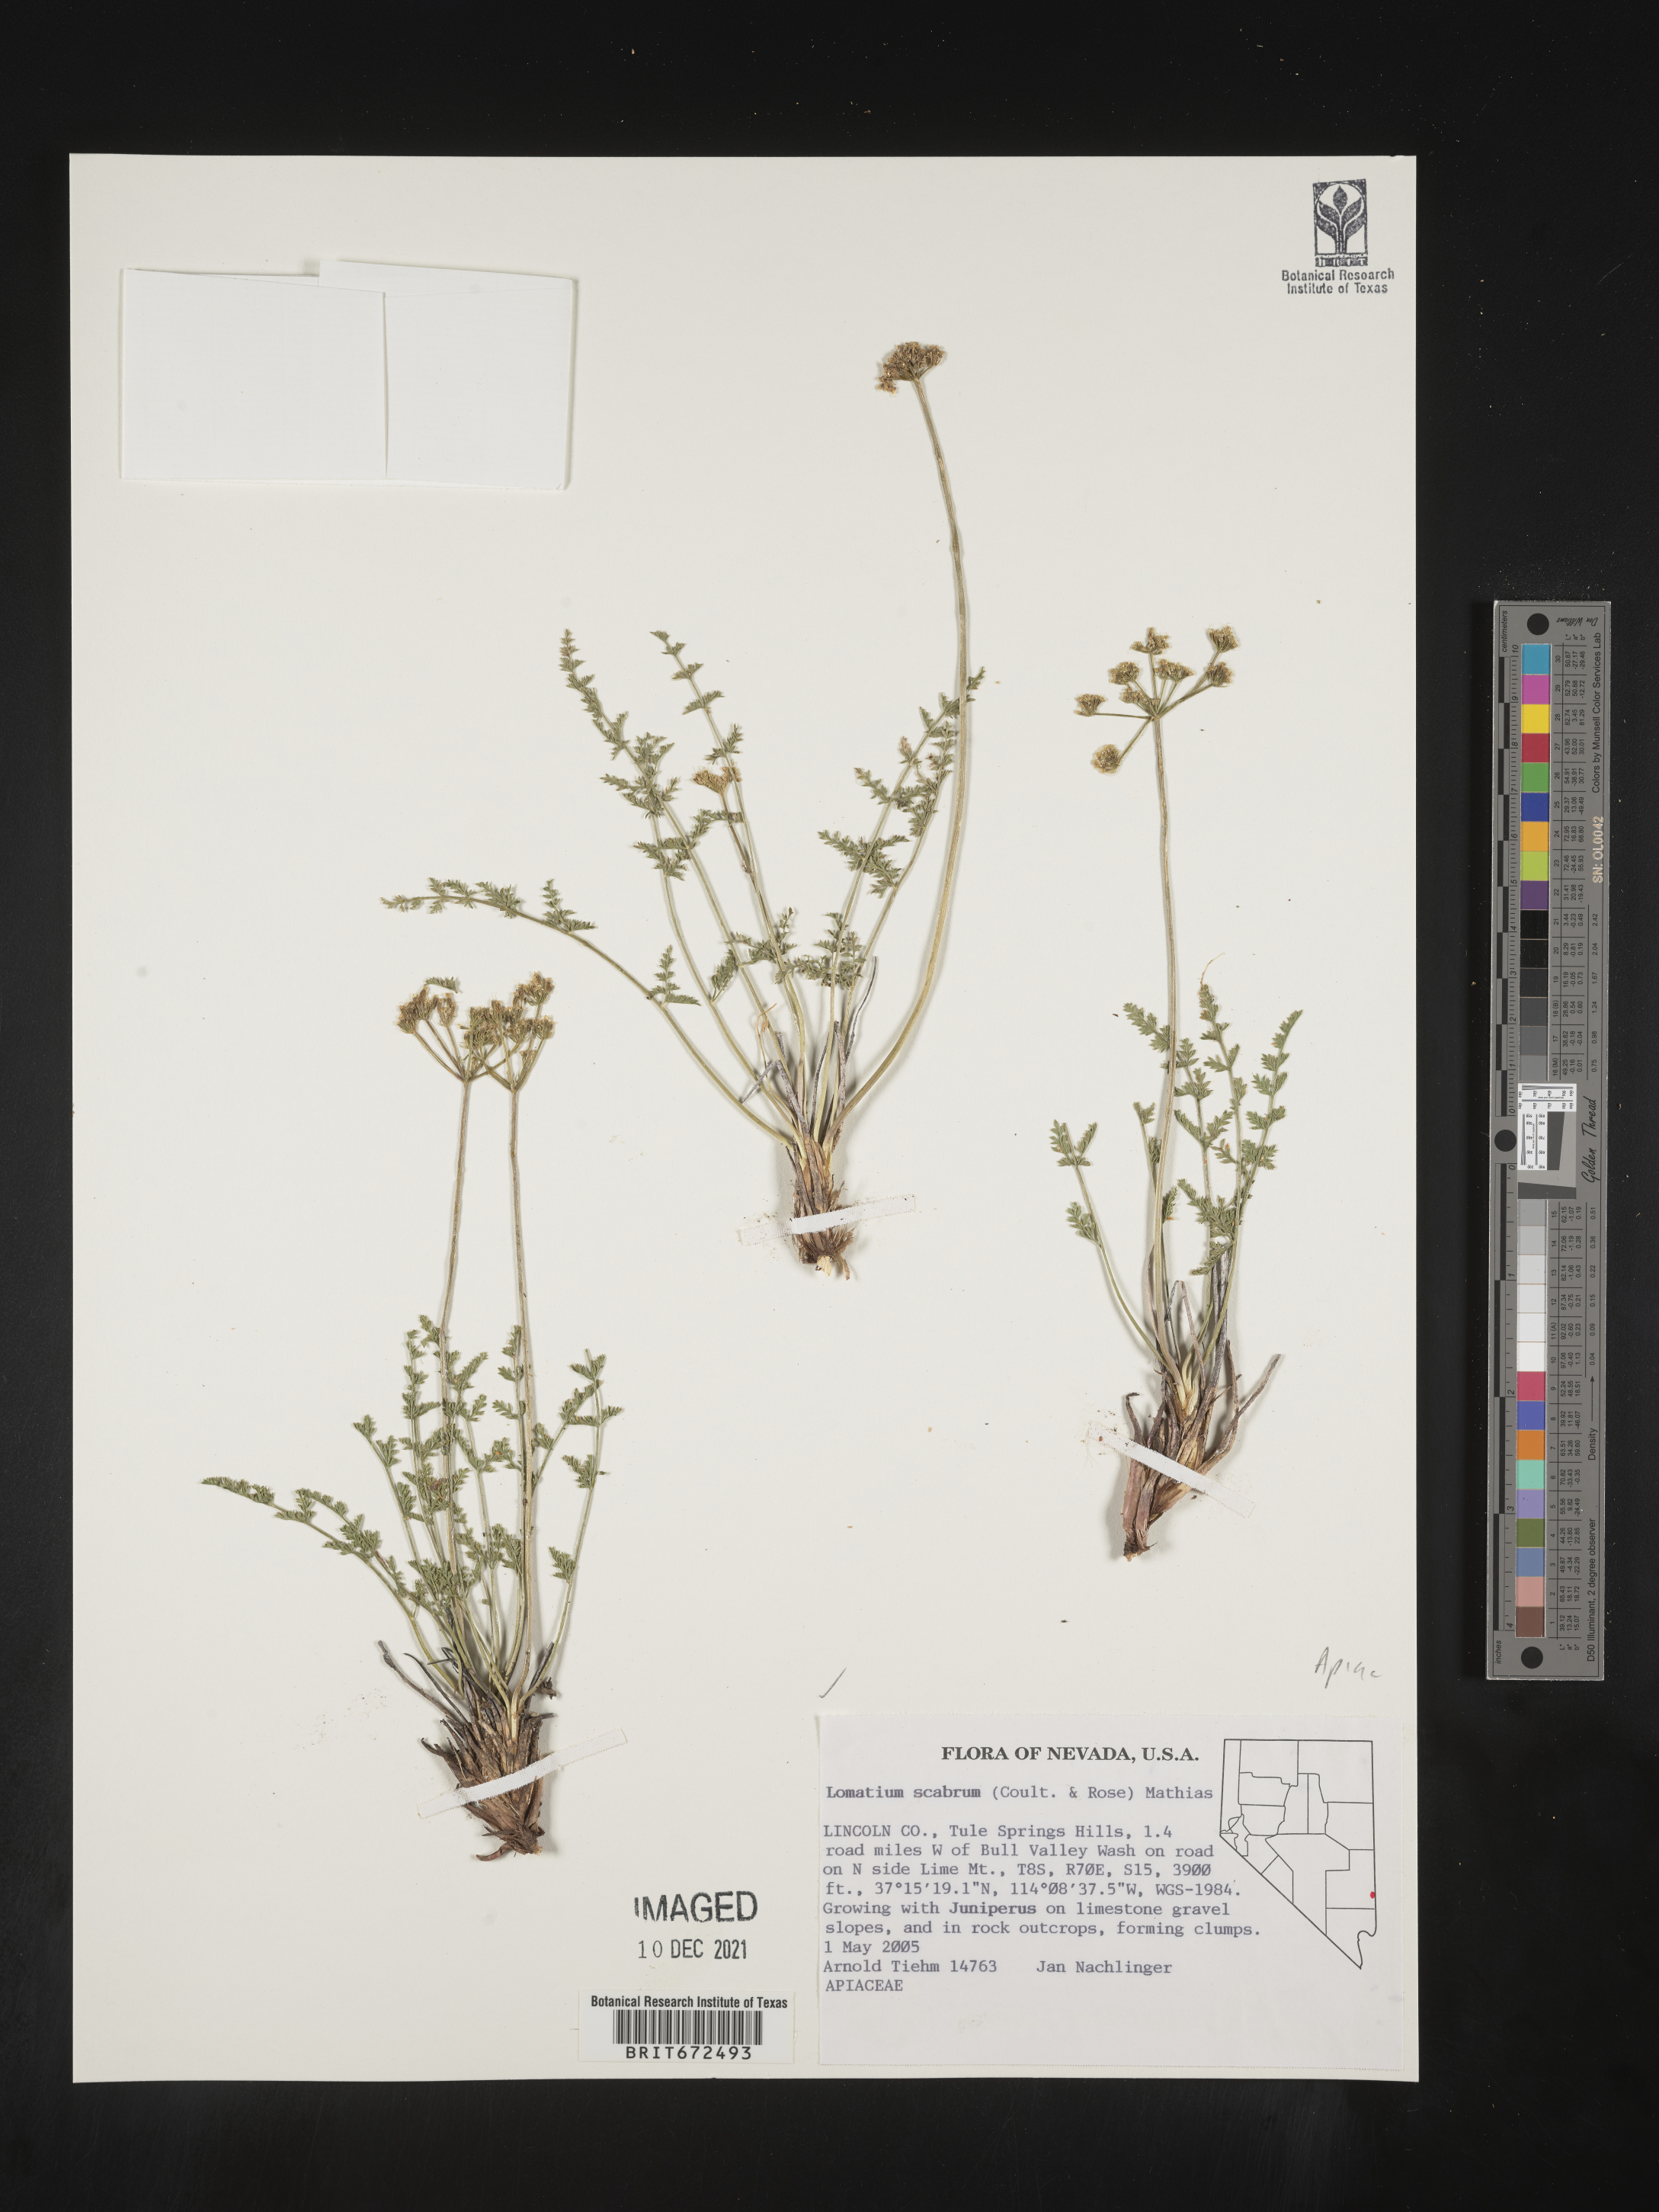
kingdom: Plantae
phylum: Tracheophyta
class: Magnoliopsida
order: Apiales
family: Apiaceae
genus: Lomatium
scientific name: Lomatium scabrum
